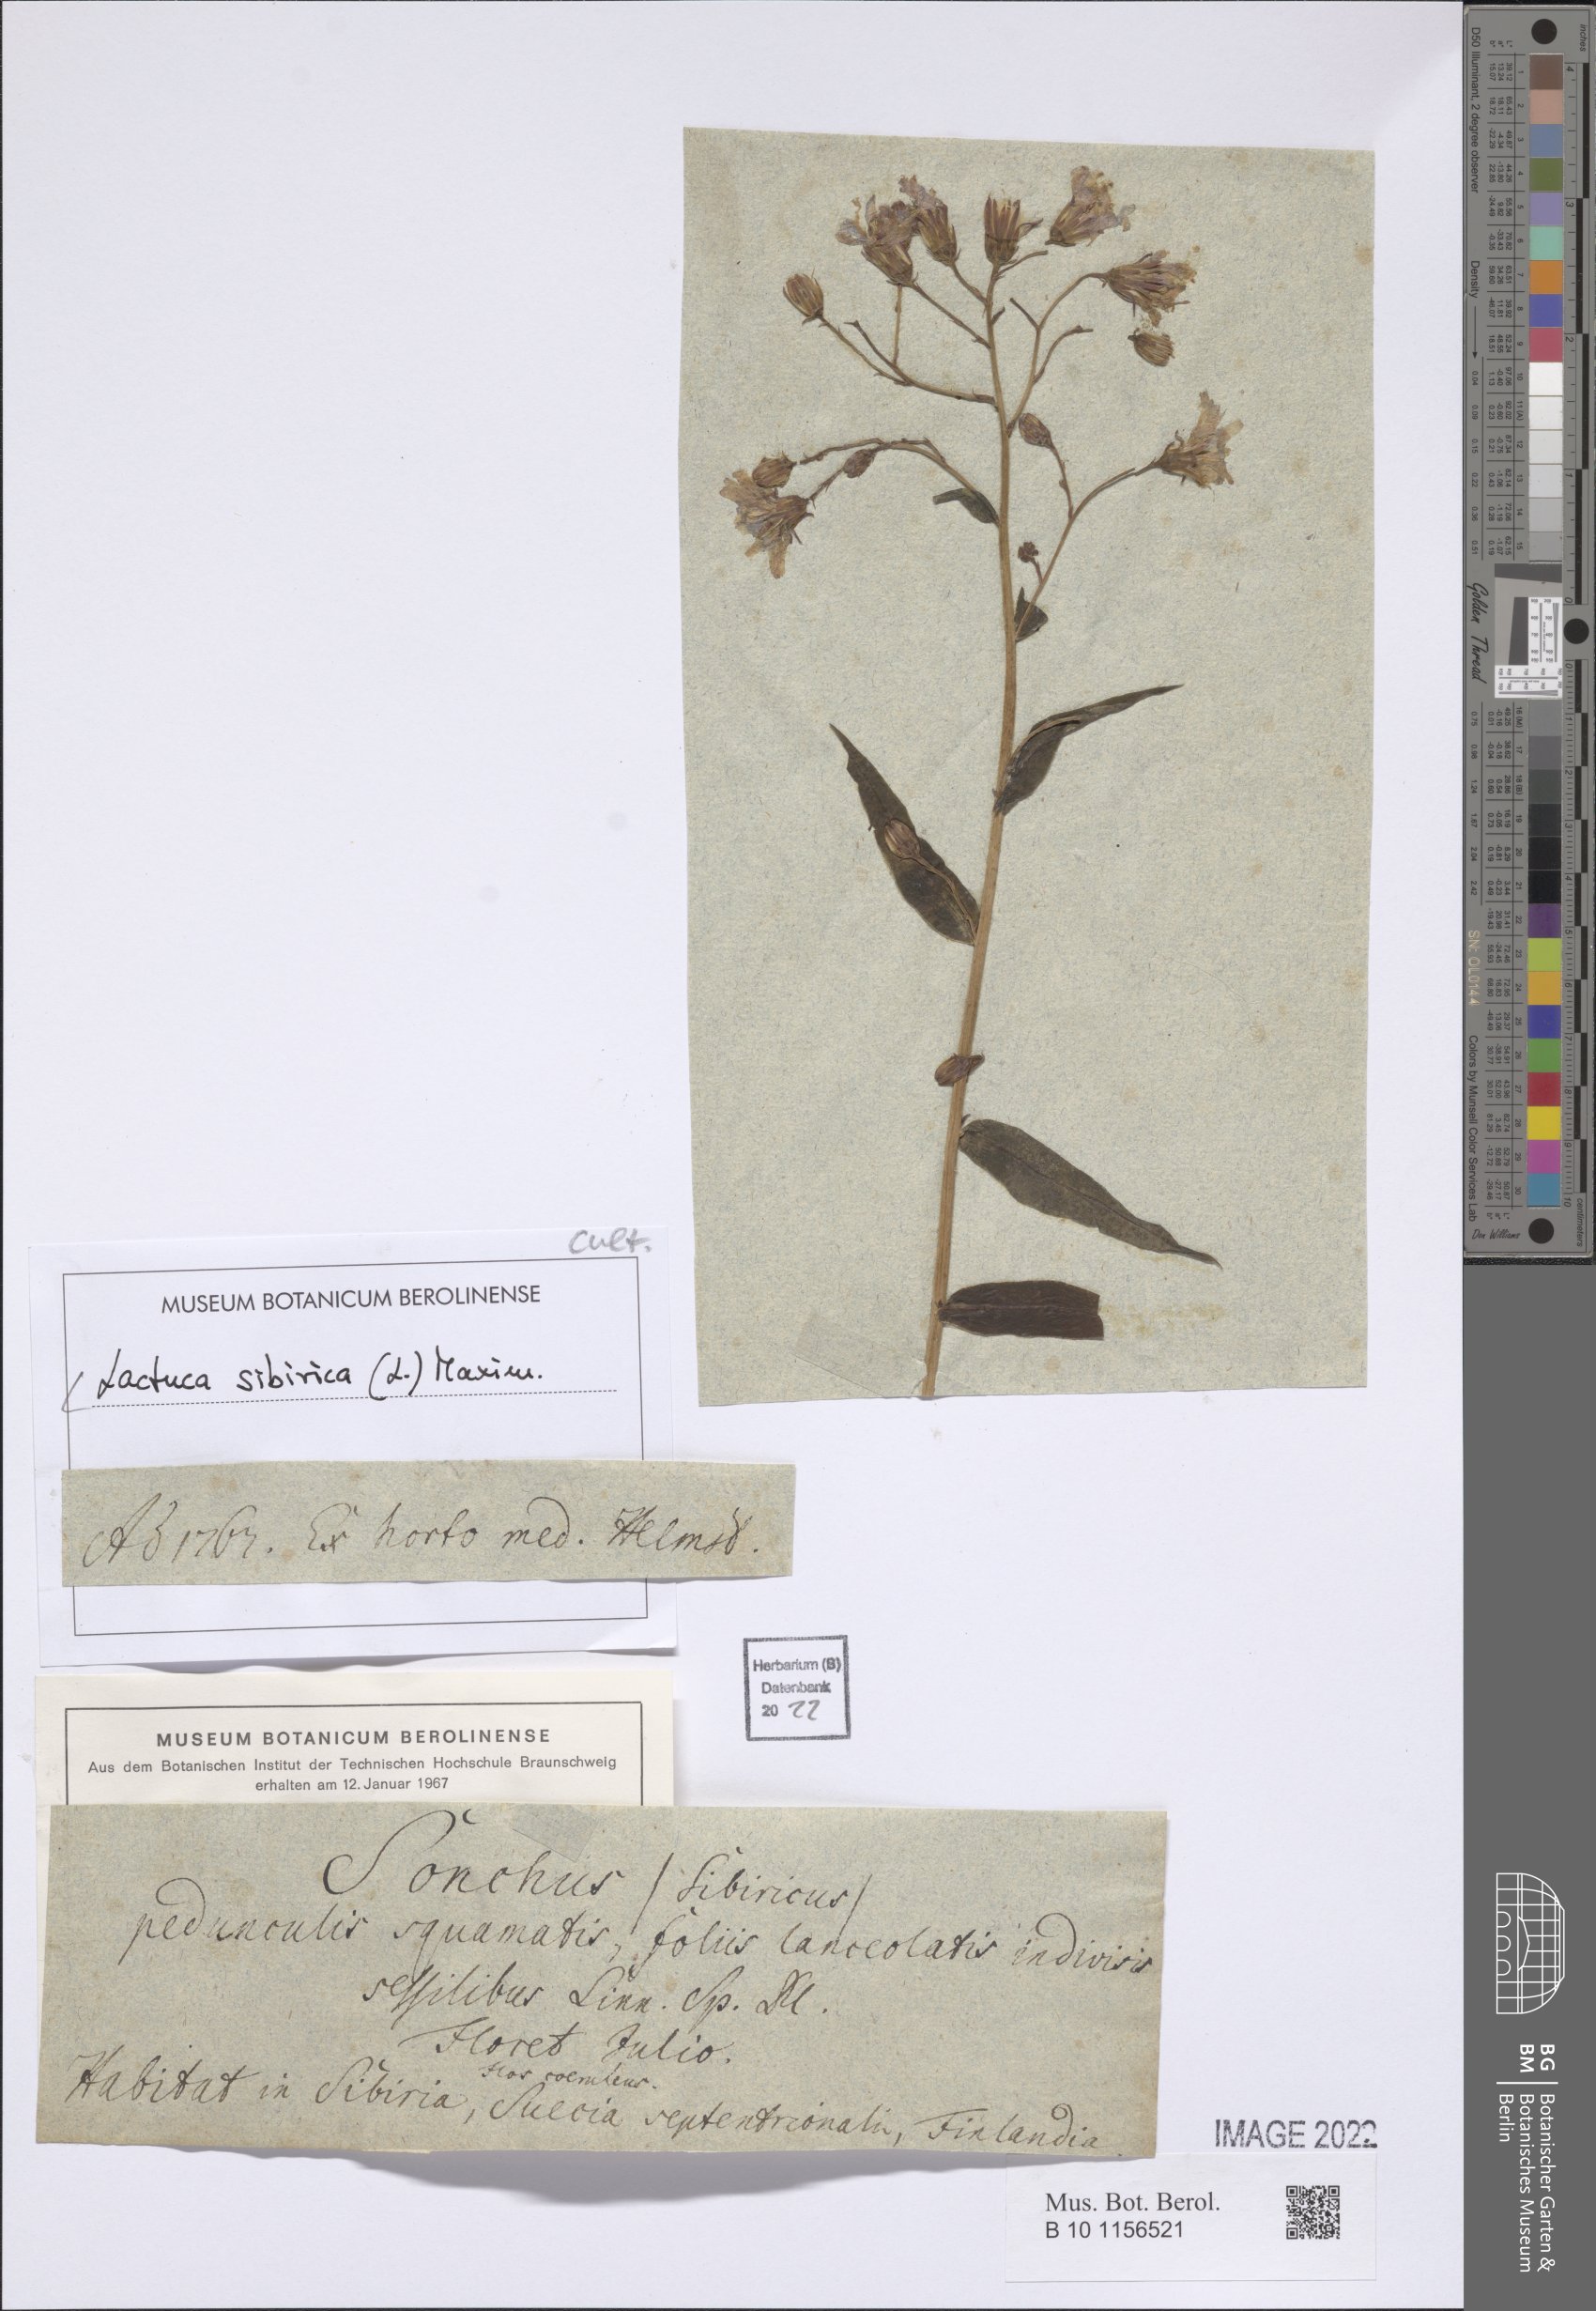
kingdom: Plantae
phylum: Tracheophyta
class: Magnoliopsida
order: Asterales
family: Asteraceae
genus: Lactuca
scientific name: Lactuca sibirica
